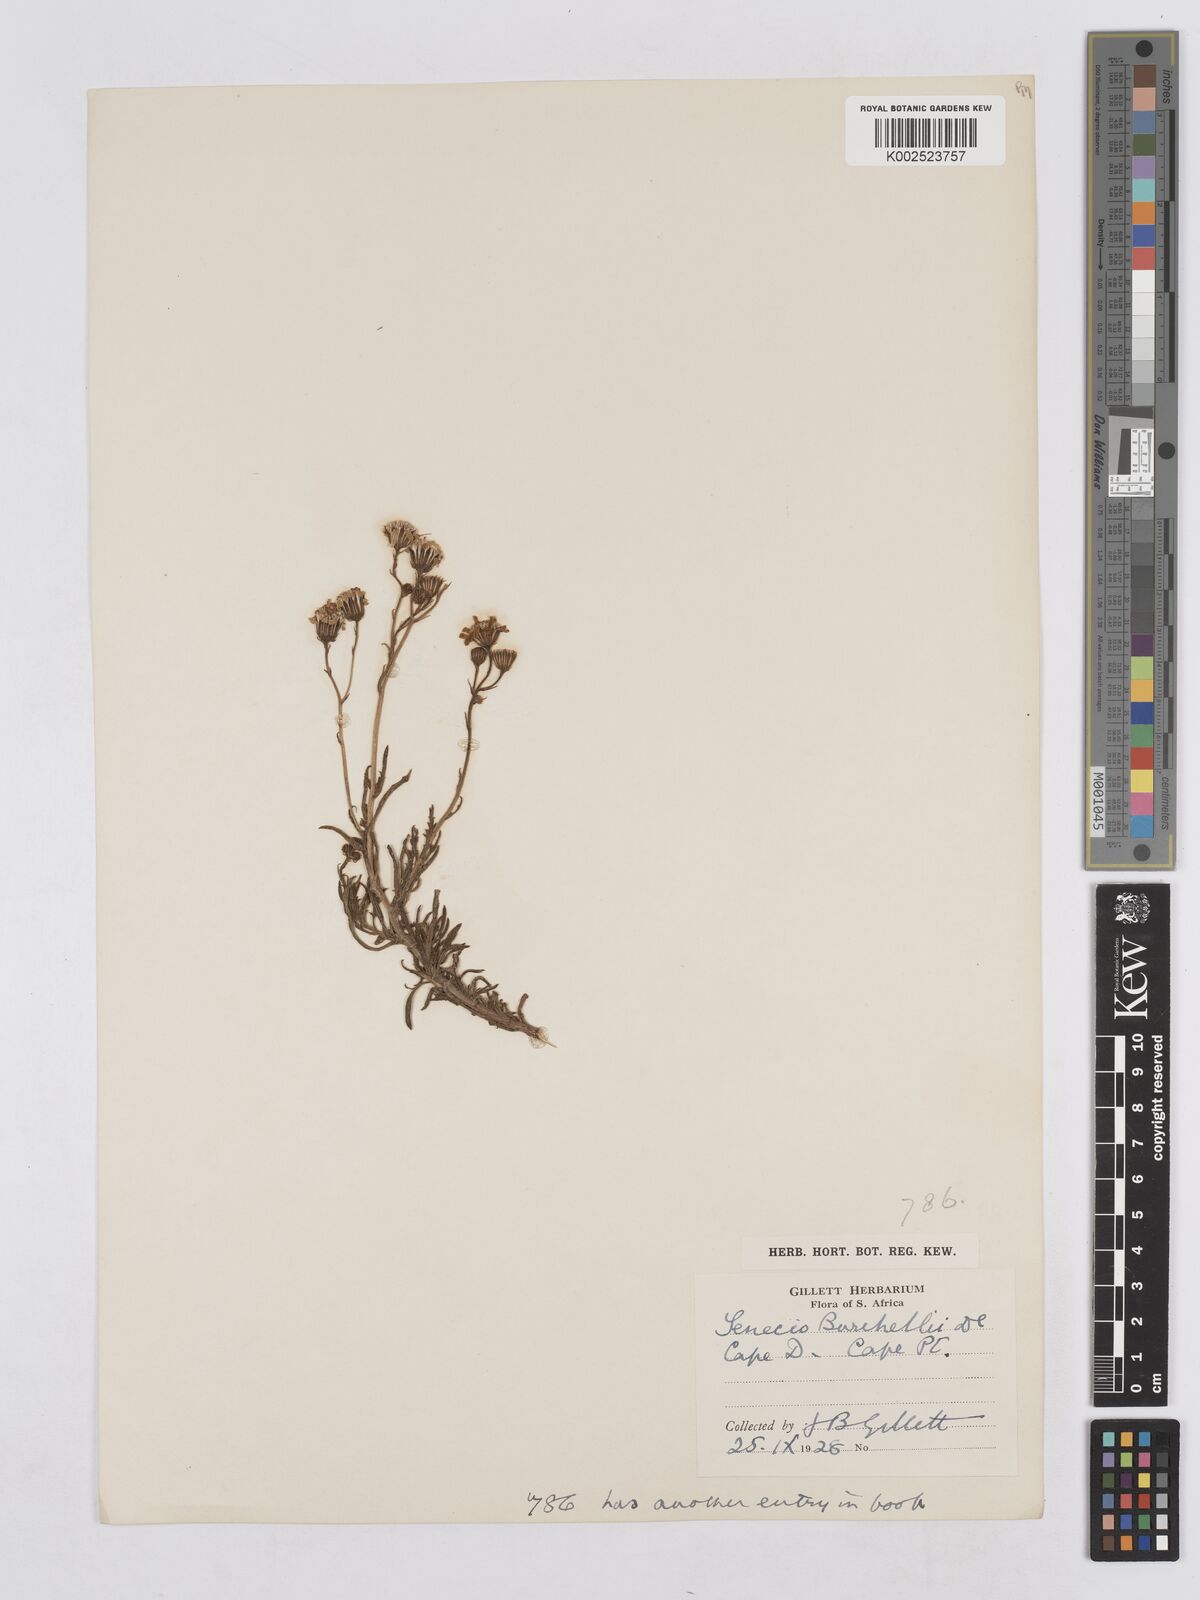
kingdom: Plantae
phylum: Tracheophyta
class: Magnoliopsida
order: Asterales
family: Asteraceae
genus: Senecio
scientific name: Senecio burchellii
